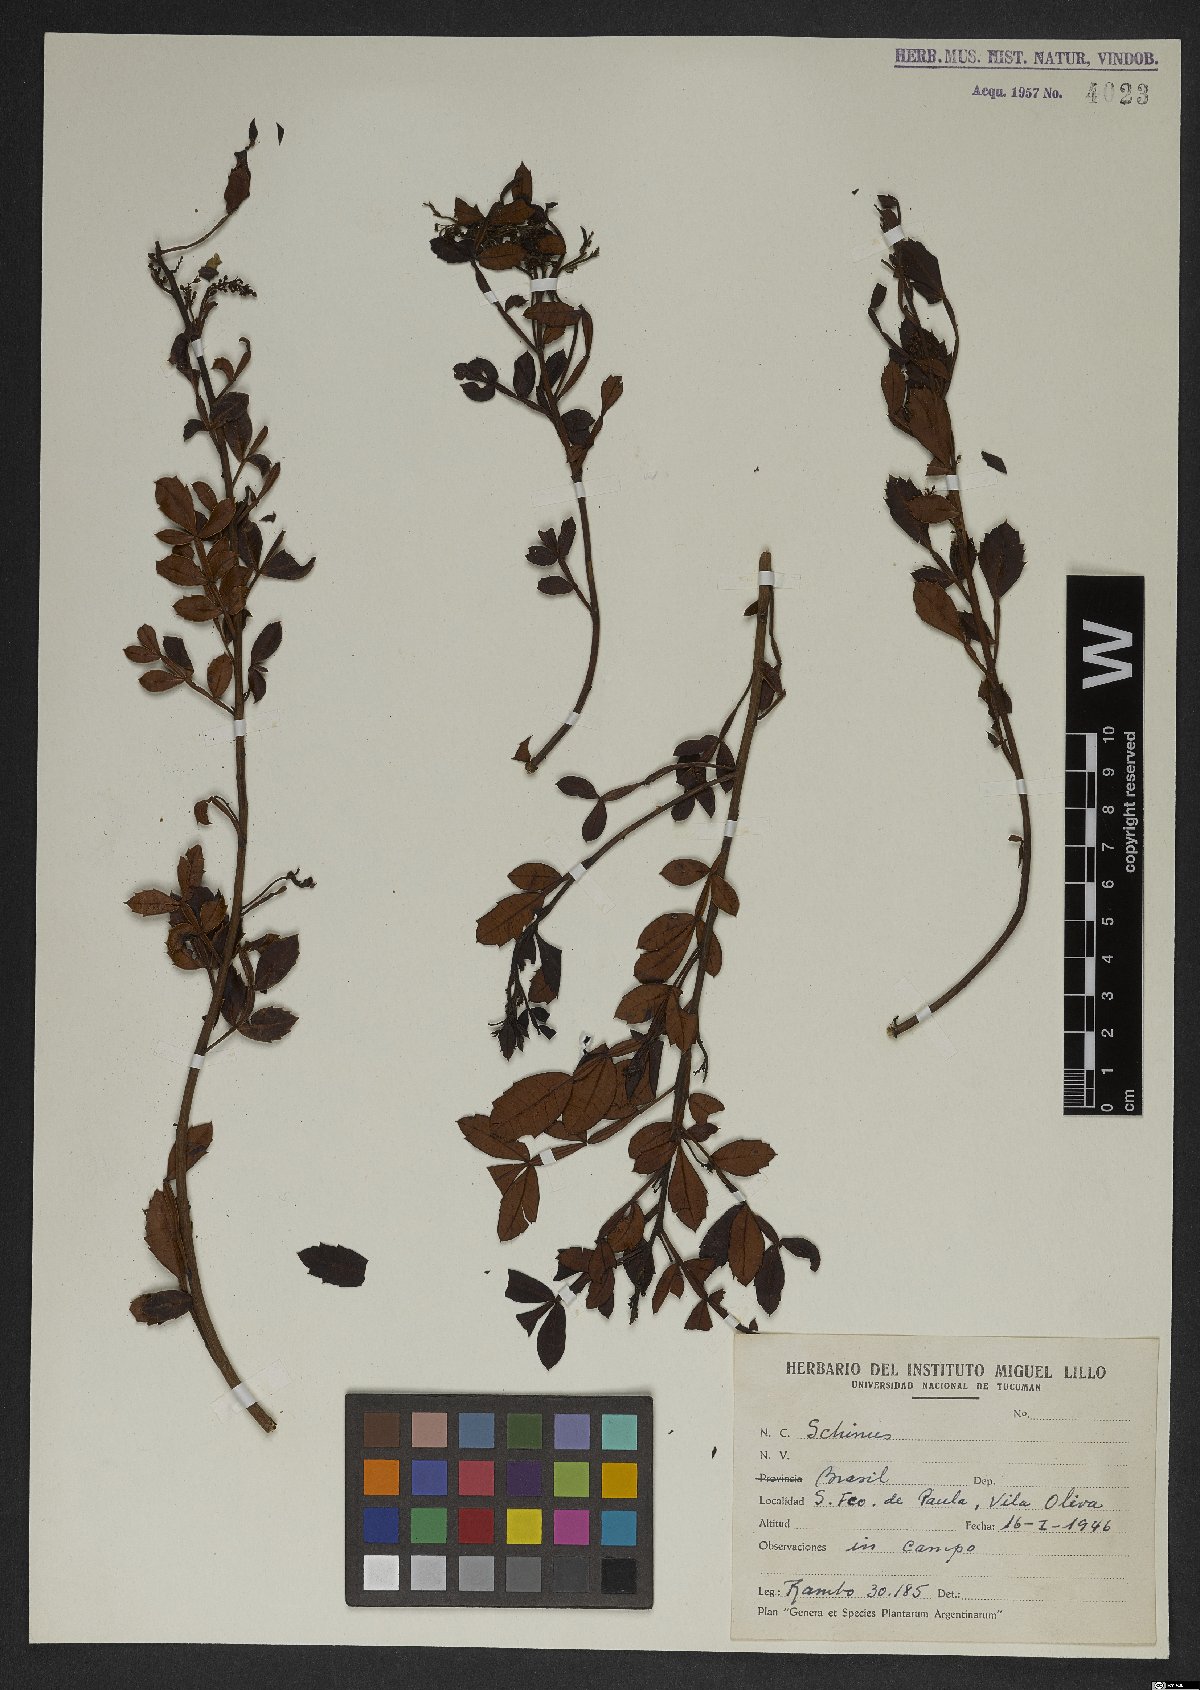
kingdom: Plantae
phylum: Tracheophyta
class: Magnoliopsida
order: Sapindales
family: Anacardiaceae
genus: Schinus
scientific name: Schinus
